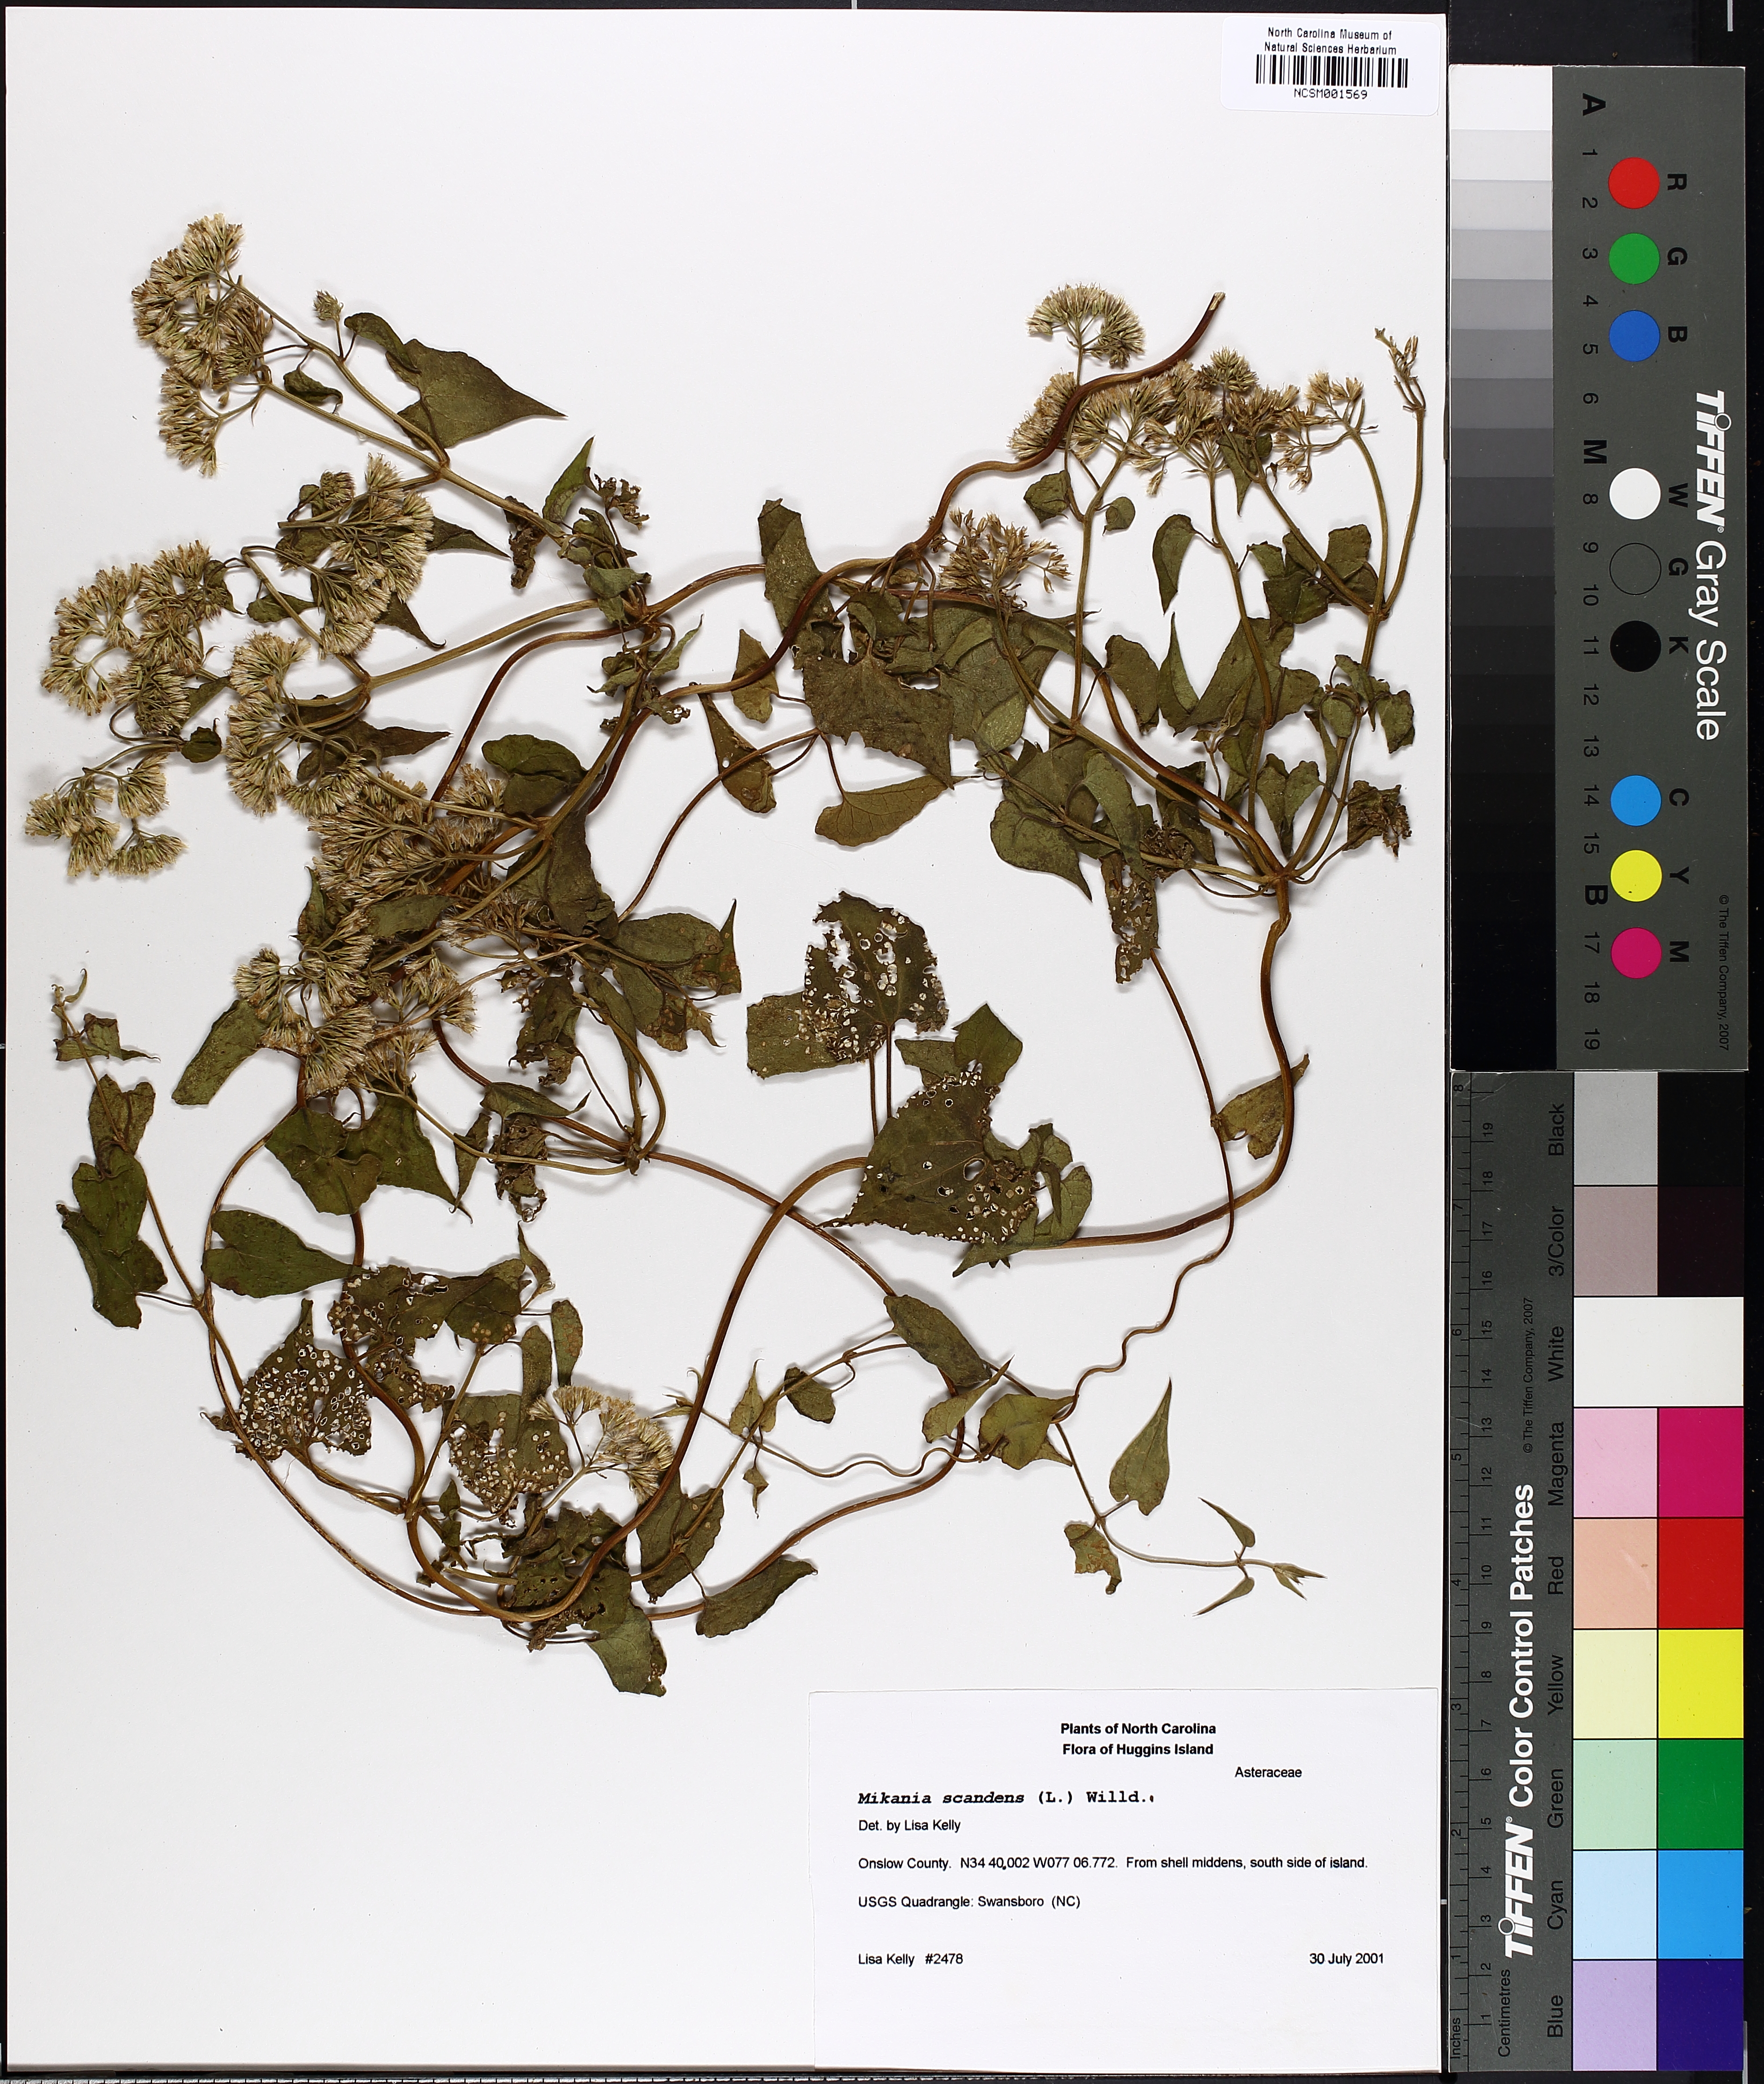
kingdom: Plantae
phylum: Tracheophyta
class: Magnoliopsida
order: Asterales
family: Asteraceae
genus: Mikania
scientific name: Mikania scandens
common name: Climbing hempvine
